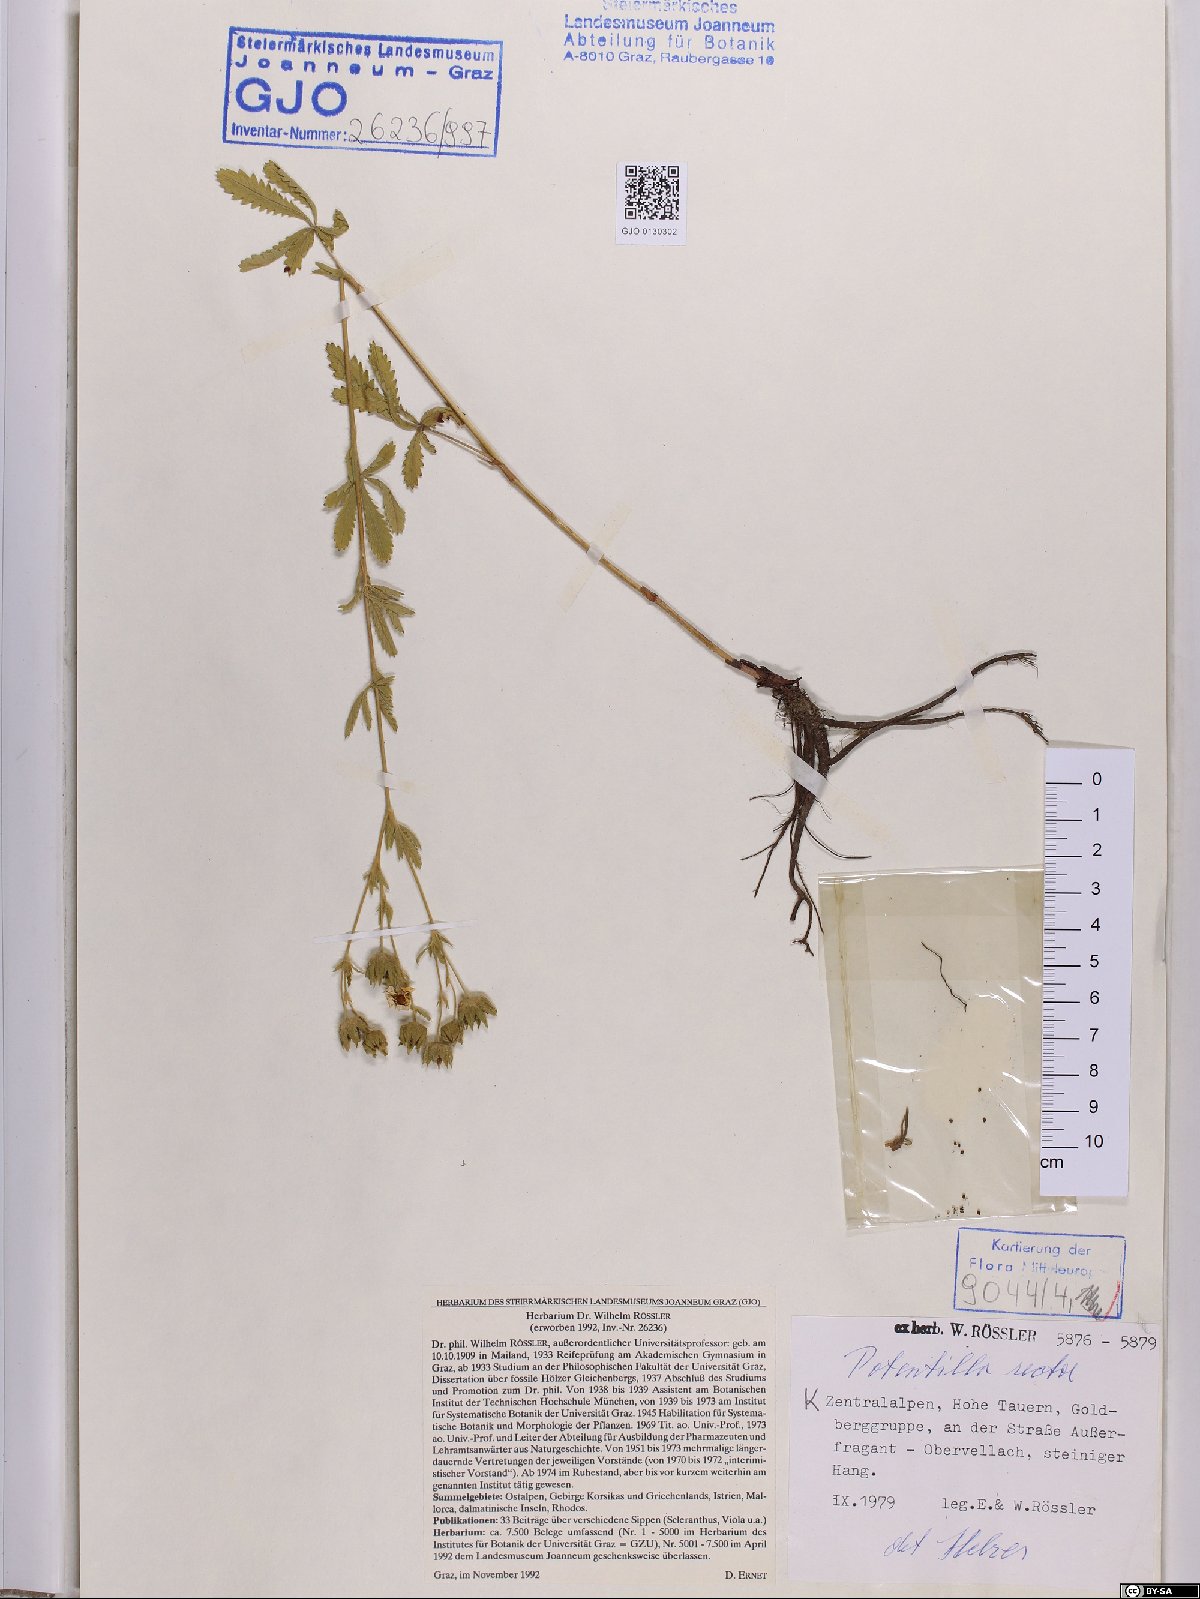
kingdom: Plantae
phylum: Tracheophyta
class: Magnoliopsida
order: Rosales
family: Rosaceae
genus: Potentilla
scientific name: Potentilla recta
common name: Sulphur cinquefoil
